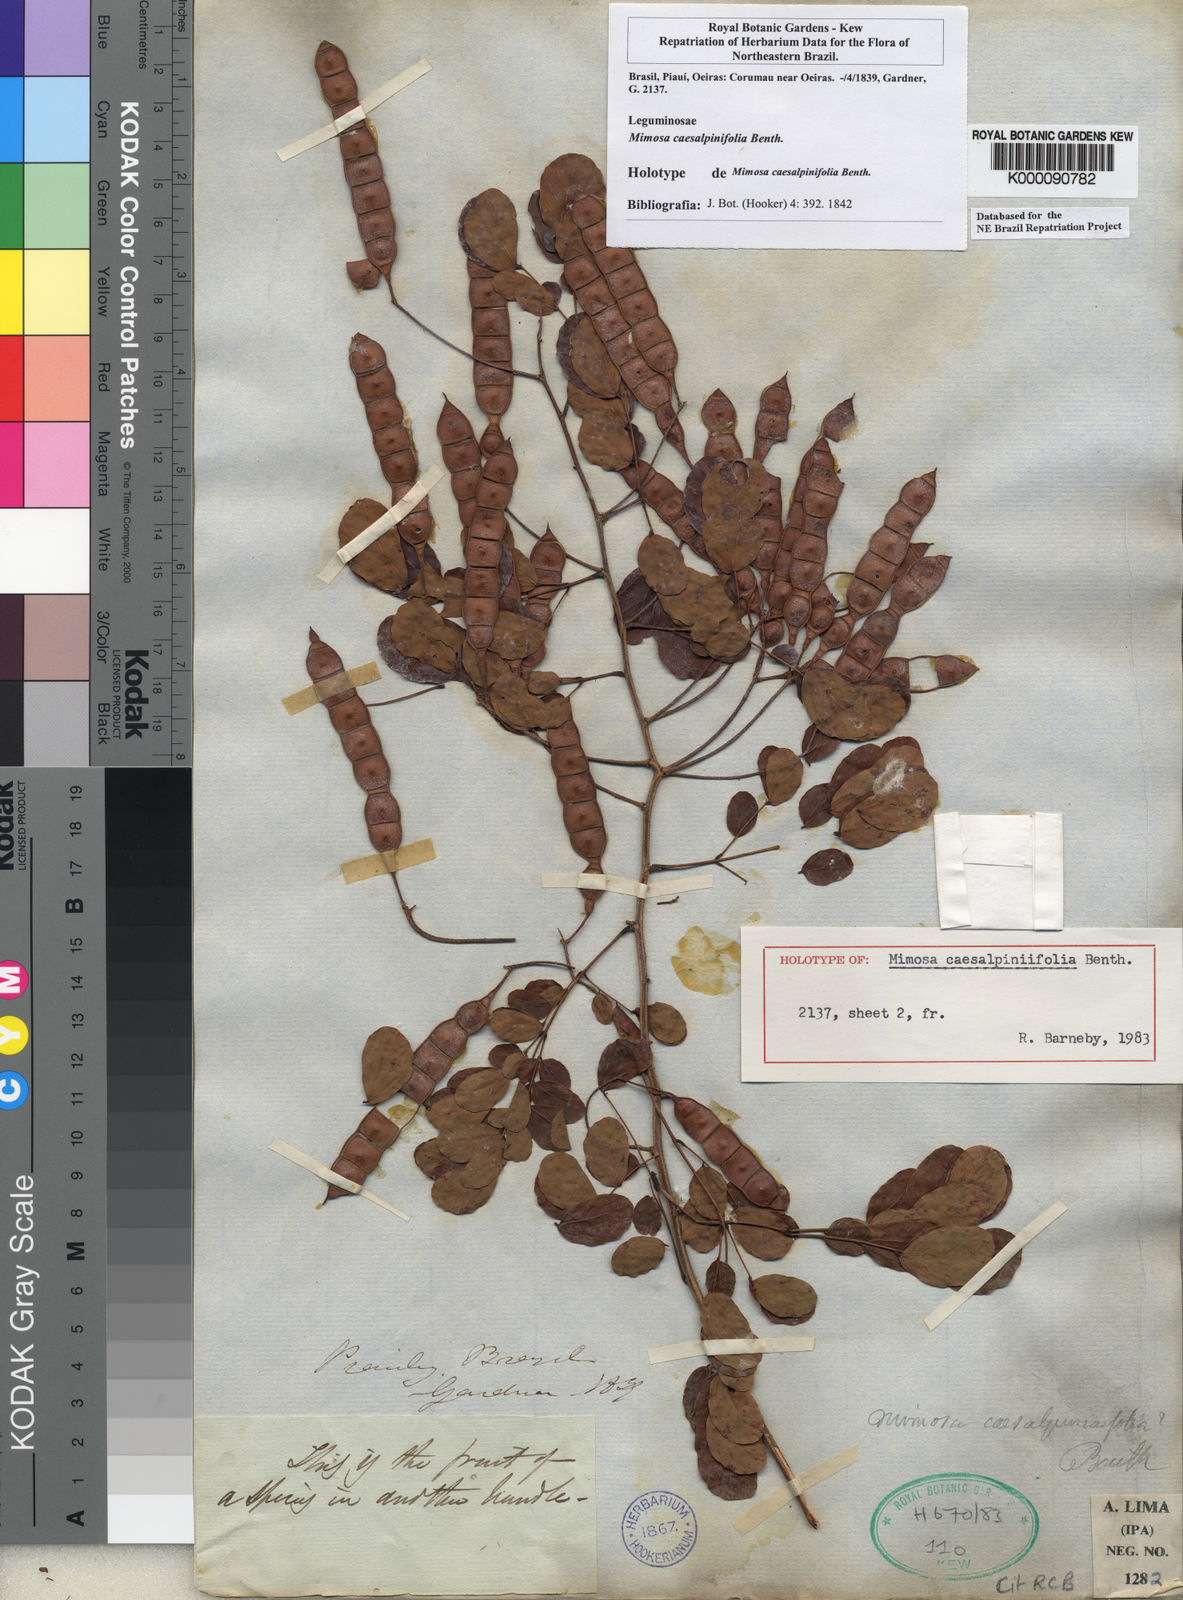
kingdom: Plantae
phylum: Tracheophyta
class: Magnoliopsida
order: Fabales
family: Fabaceae
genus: Mimosa
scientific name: Mimosa caesalpiniifolia
